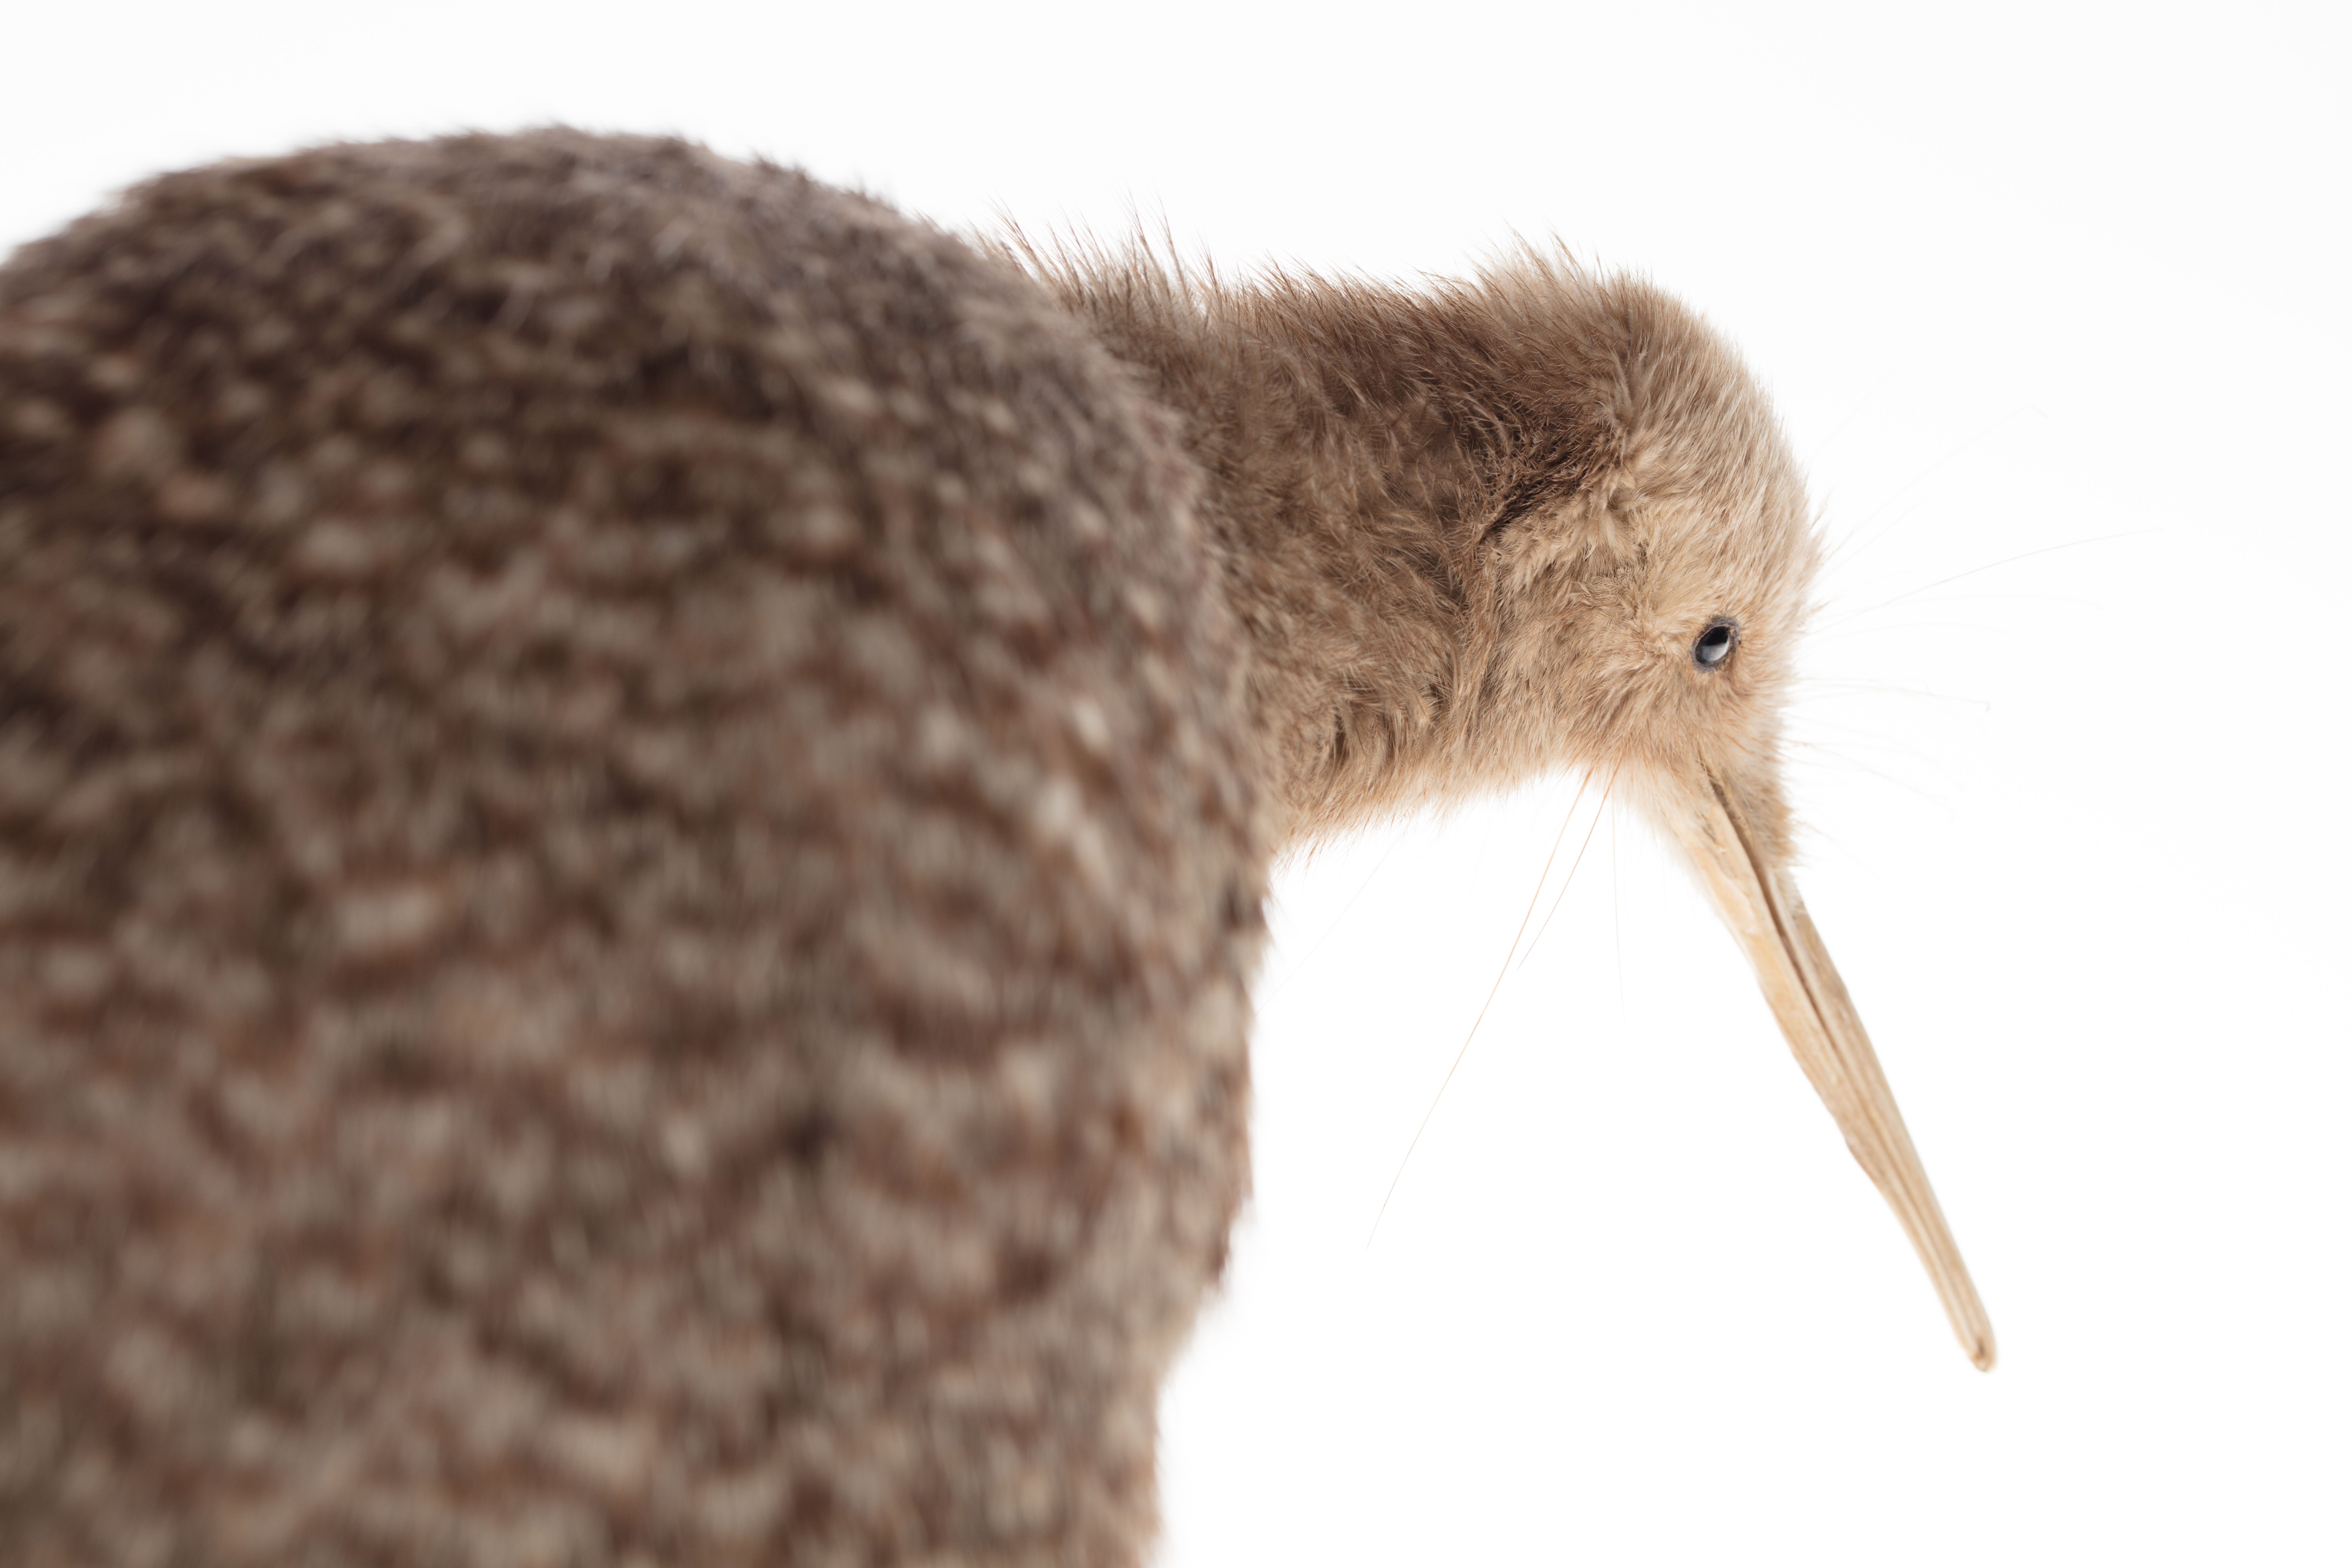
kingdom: Animalia
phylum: Chordata
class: Aves
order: Apterygiformes
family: Apterygidae
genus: Apteryx
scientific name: Apteryx owenii
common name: Little spotted kiwi
